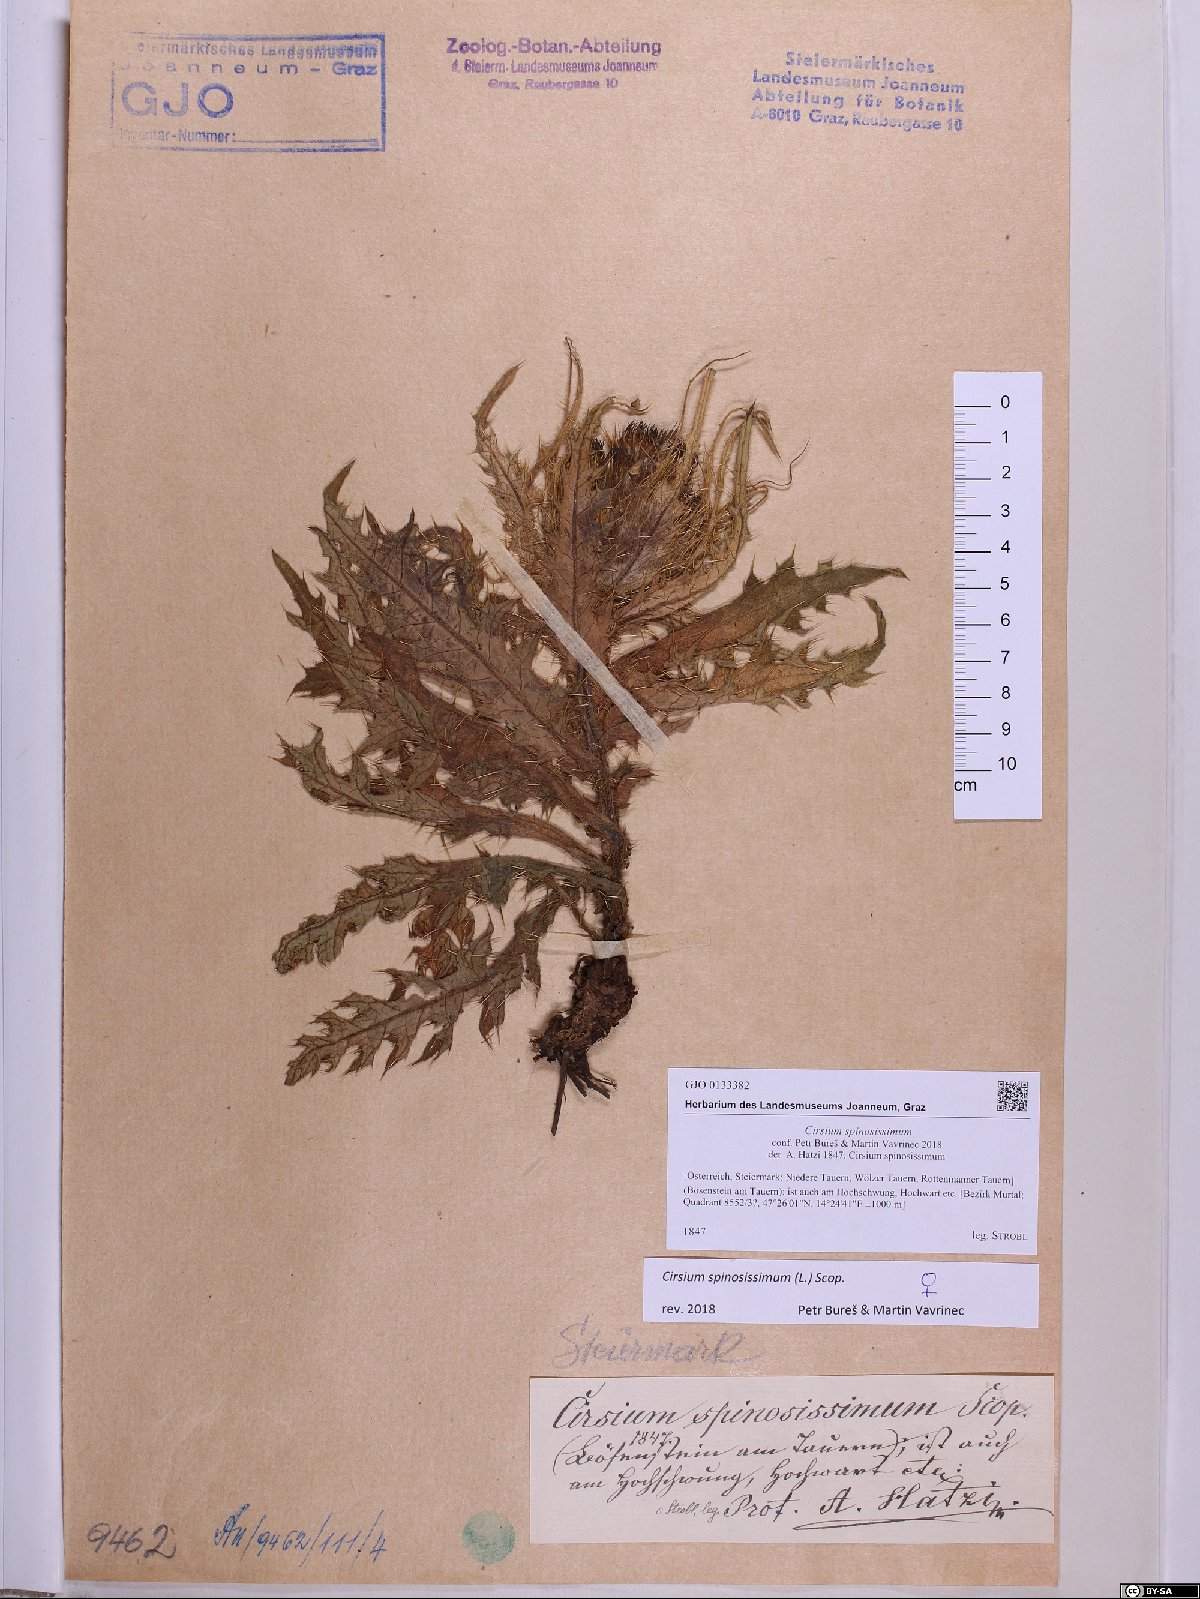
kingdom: Plantae
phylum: Tracheophyta
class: Magnoliopsida
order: Asterales
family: Asteraceae
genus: Cirsium
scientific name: Cirsium spinosissimum
